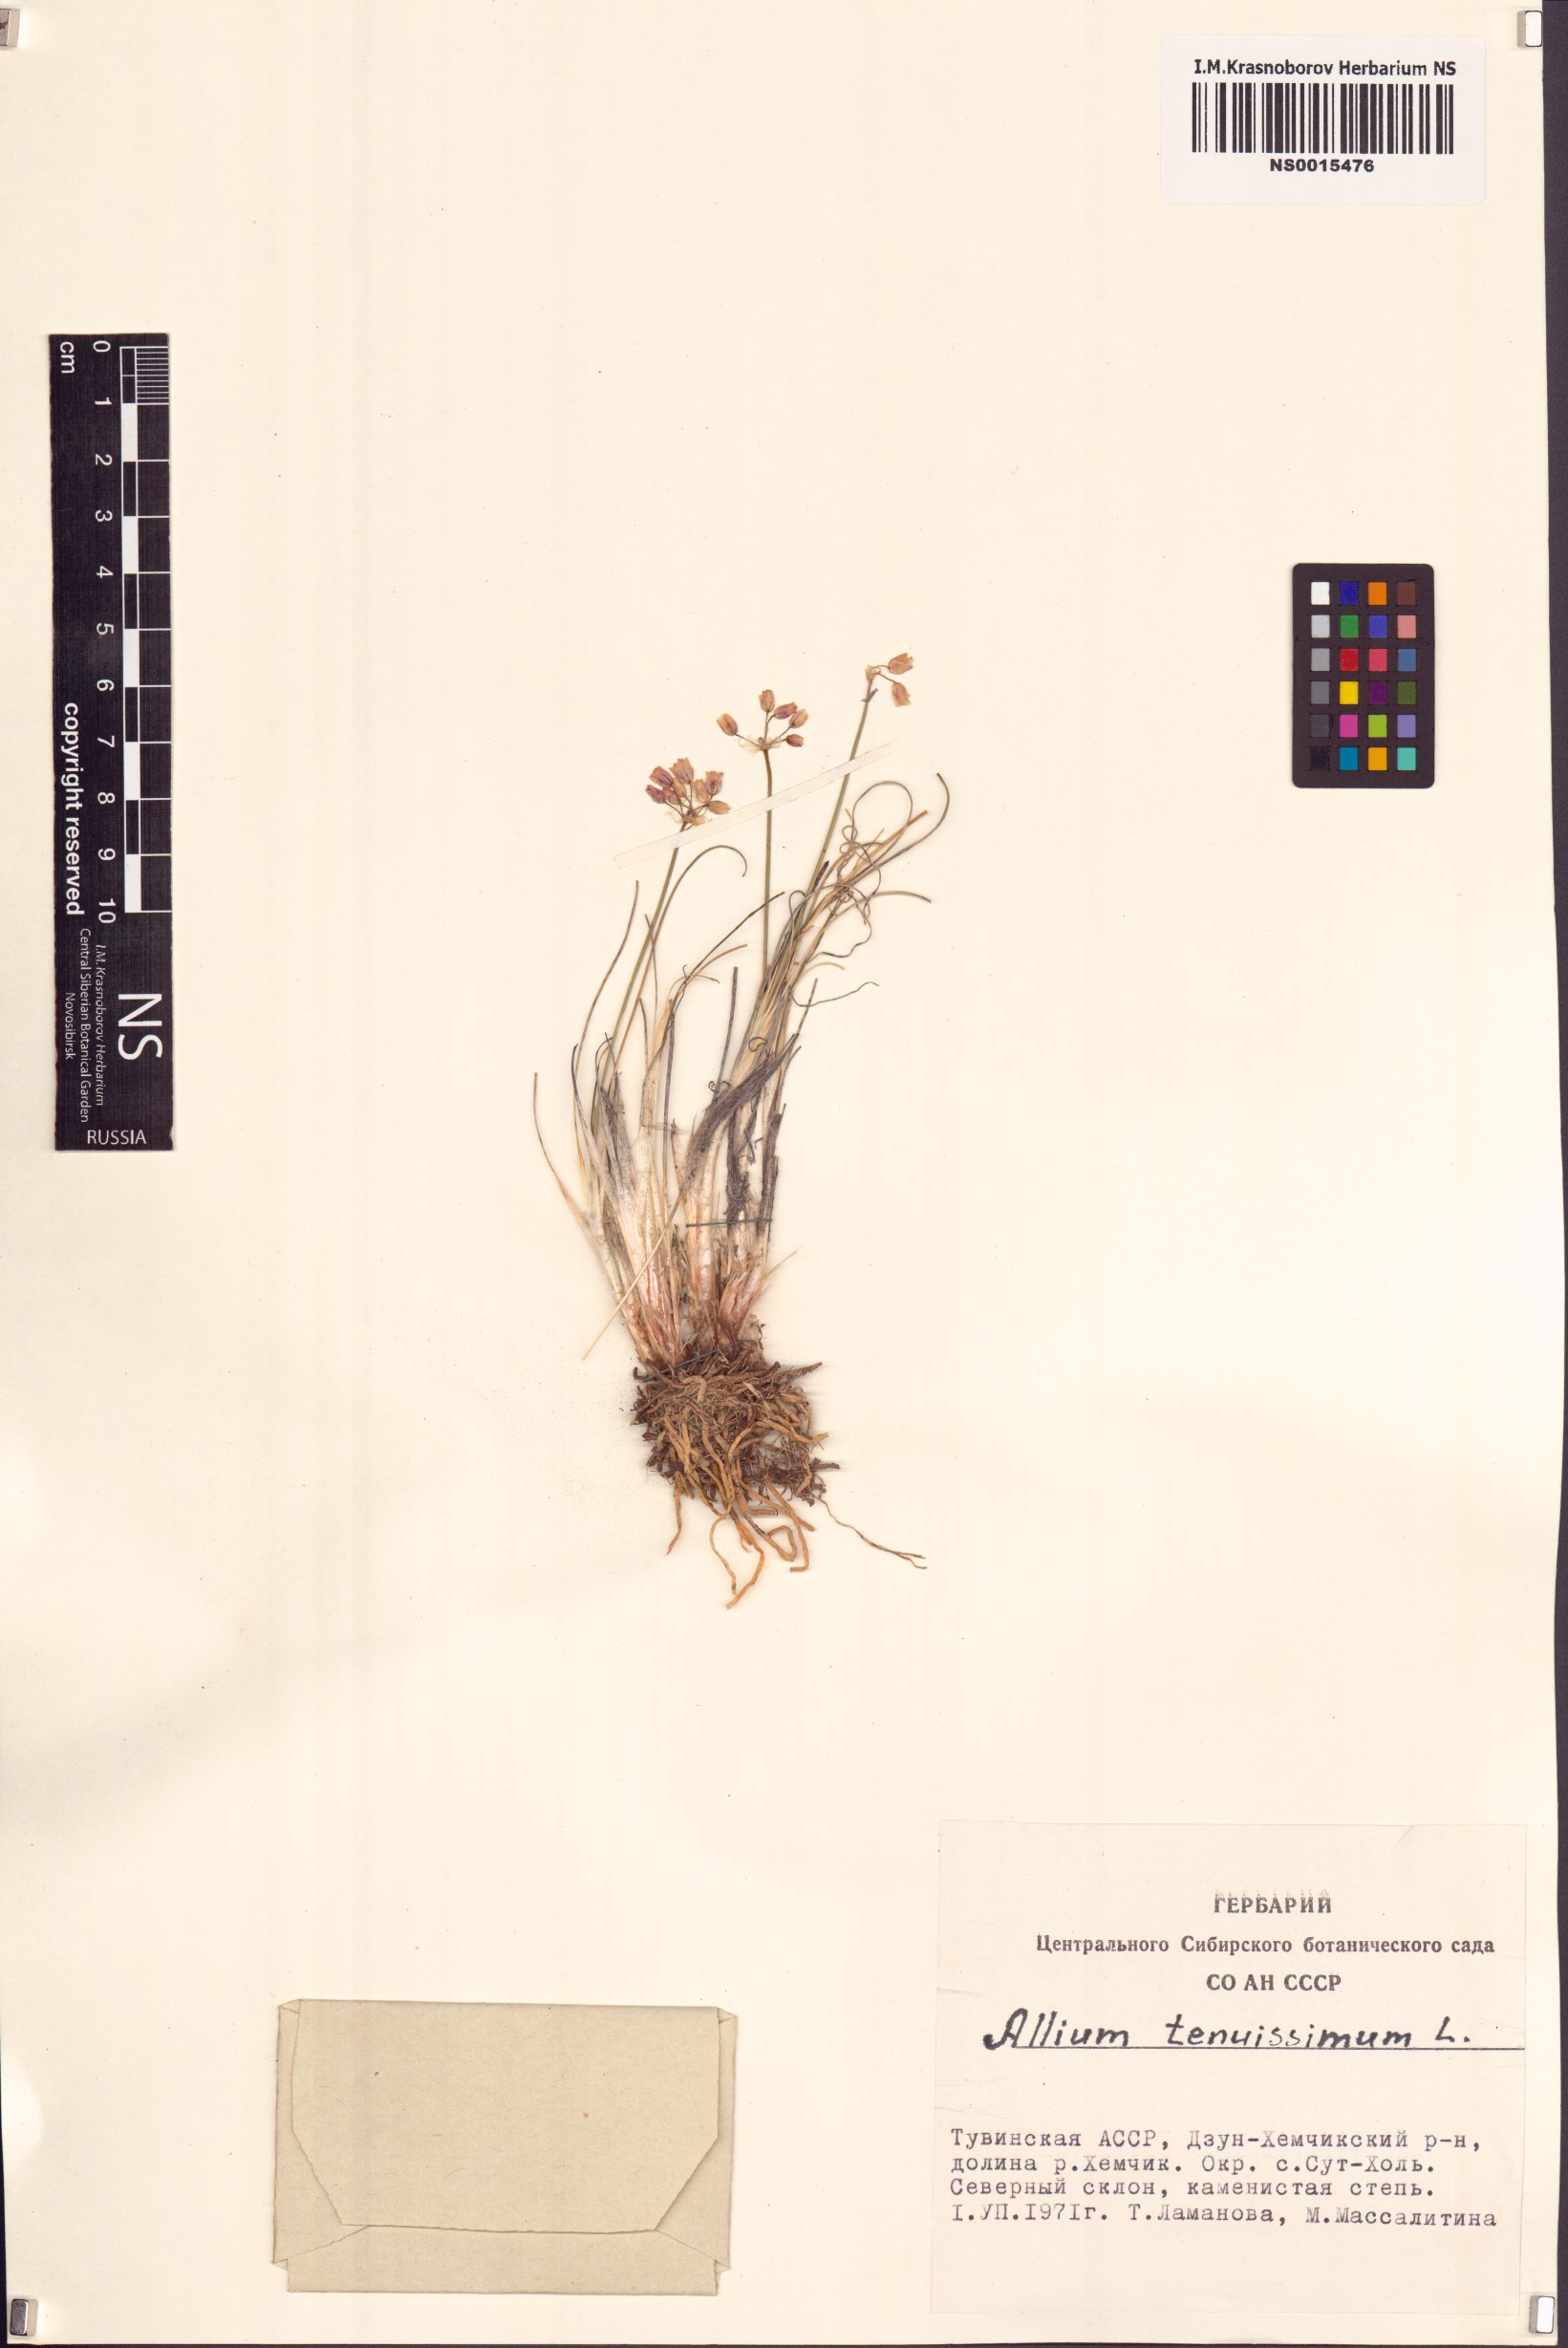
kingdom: Plantae
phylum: Tracheophyta
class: Liliopsida
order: Asparagales
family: Amaryllidaceae
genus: Allium
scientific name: Allium tenuissimum
